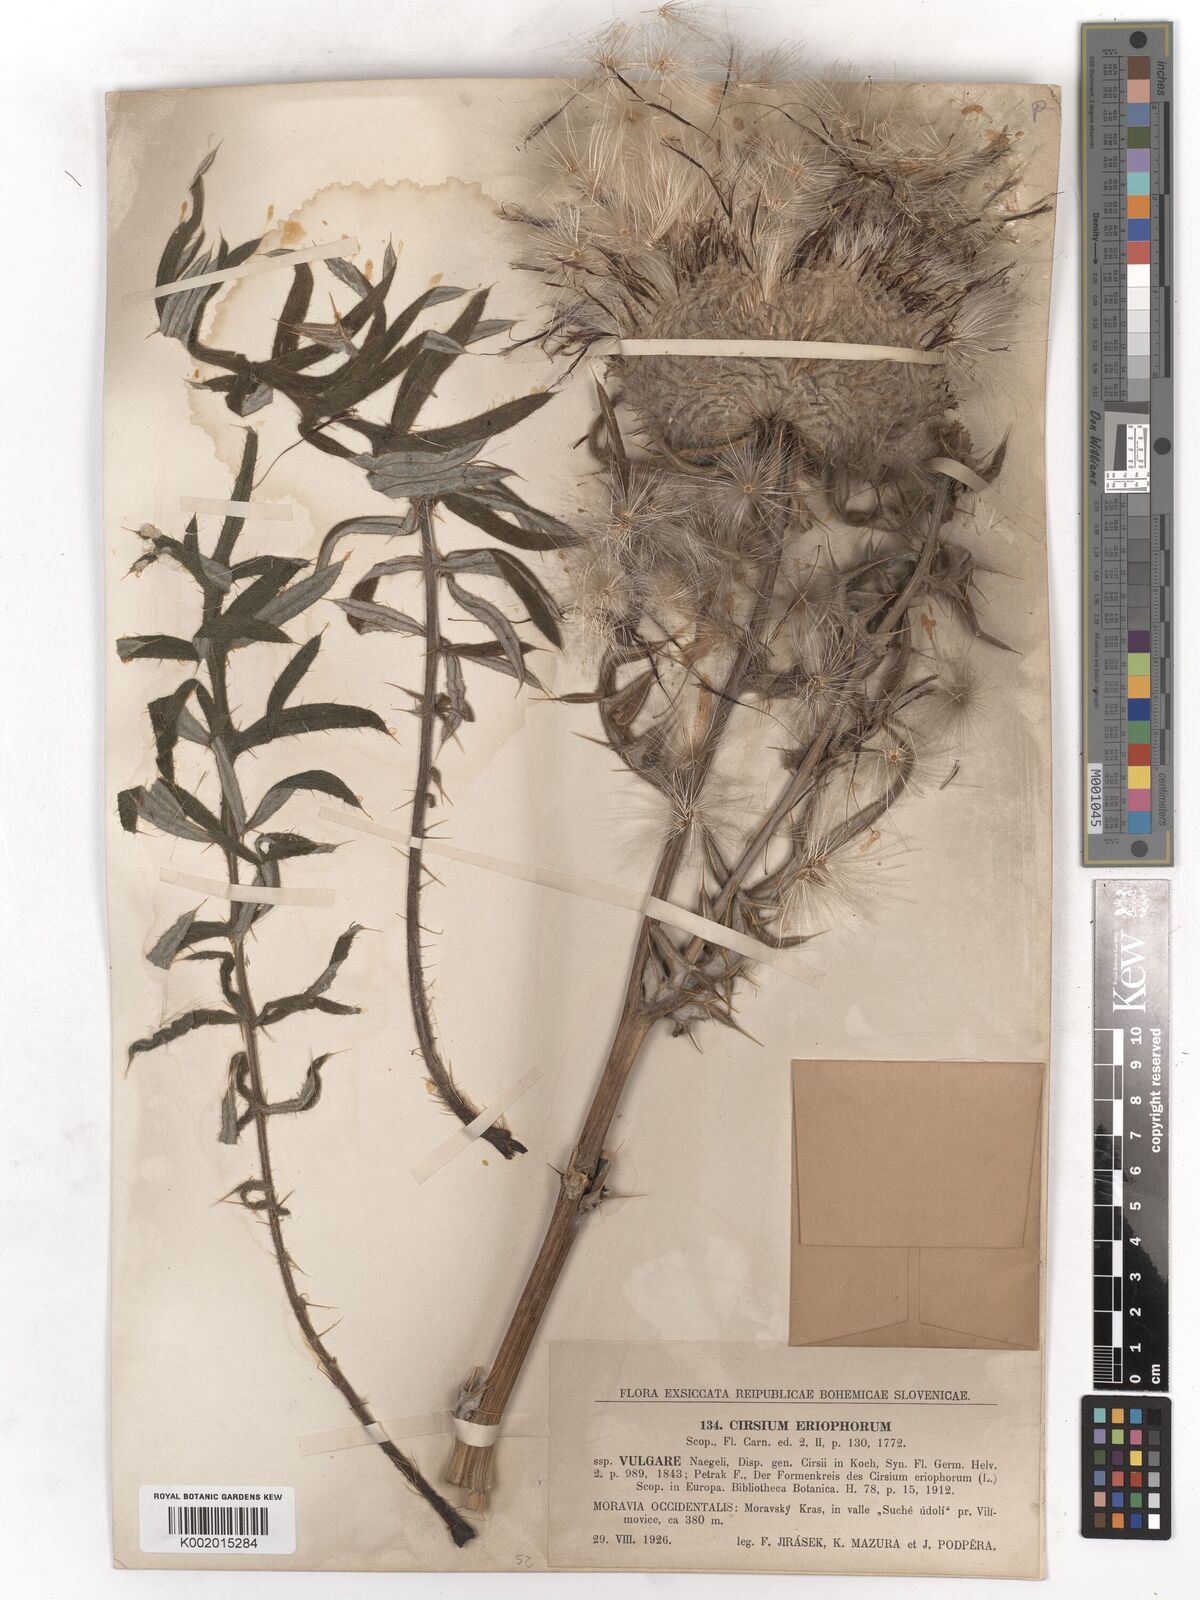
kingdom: Plantae
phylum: Tracheophyta
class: Magnoliopsida
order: Asterales
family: Asteraceae
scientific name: Asteraceae
